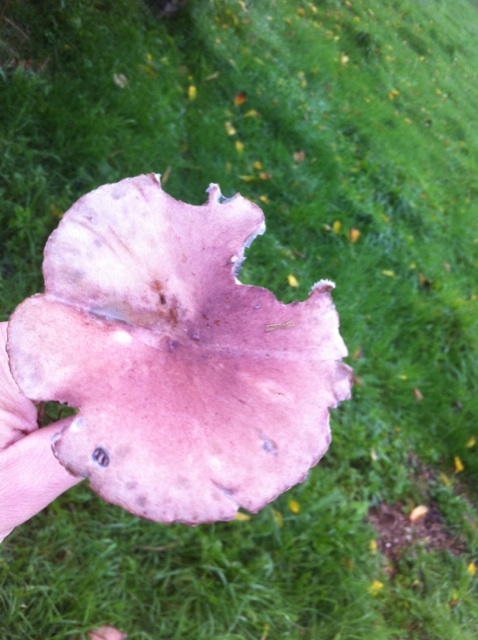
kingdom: Fungi
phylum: Basidiomycota
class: Agaricomycetes
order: Agaricales
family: Strophariaceae
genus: Stropharia
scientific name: Stropharia rugosoannulata
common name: rødbrun bredblad
